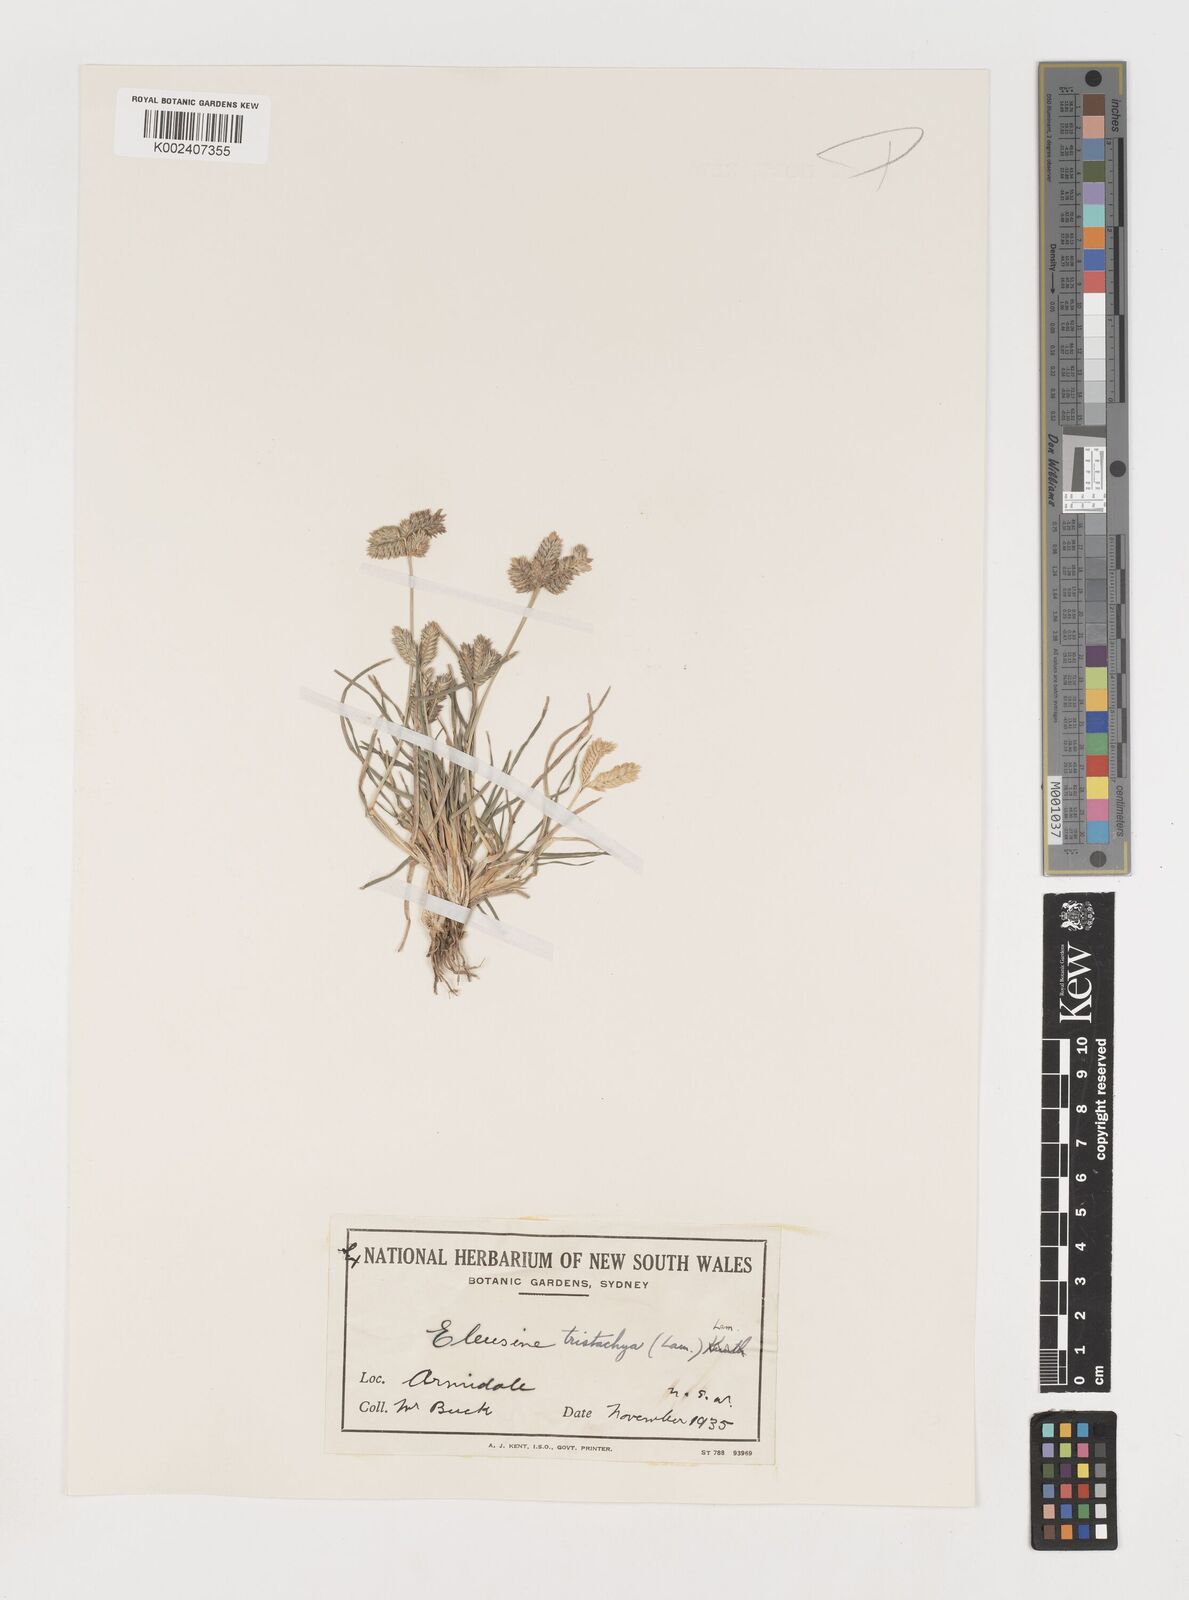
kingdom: Plantae
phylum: Tracheophyta
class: Liliopsida
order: Poales
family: Poaceae
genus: Eleusine
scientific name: Eleusine tristachya
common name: American yard-grass
